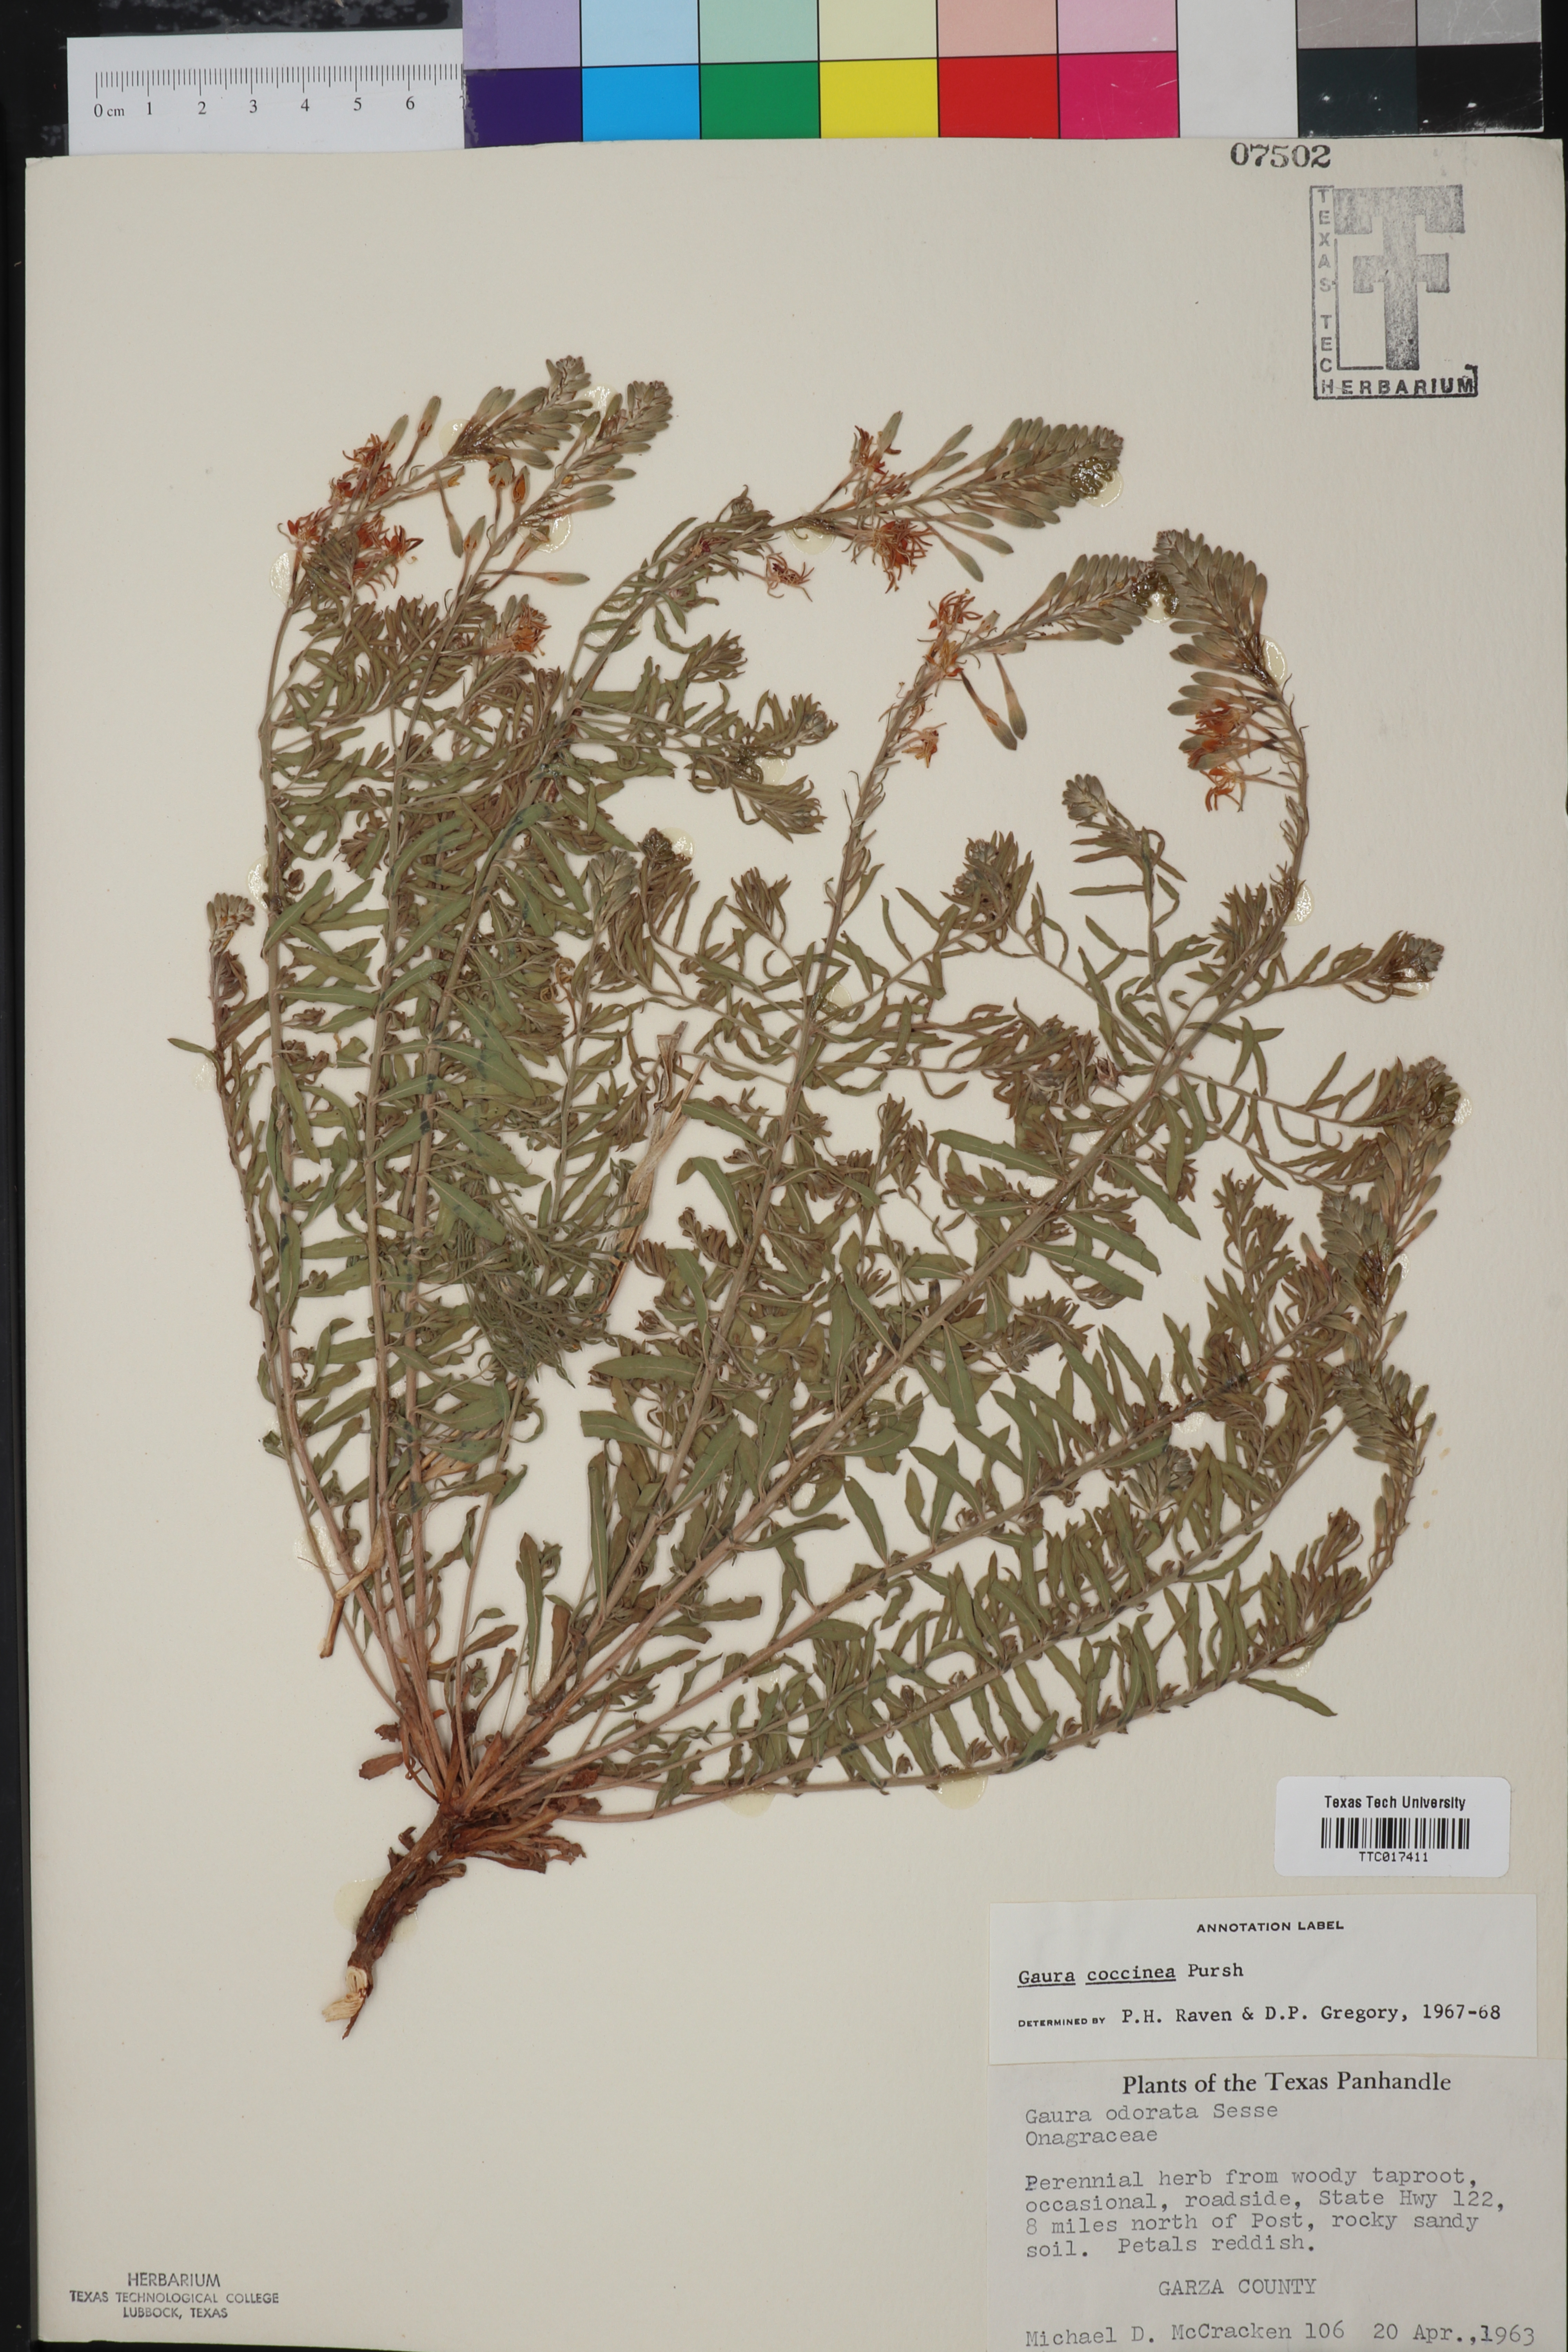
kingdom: Plantae
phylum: Tracheophyta
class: Magnoliopsida
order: Myrtales
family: Onagraceae
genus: Oenothera
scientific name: Oenothera suffrutescens
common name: Scarlet beeblossom
